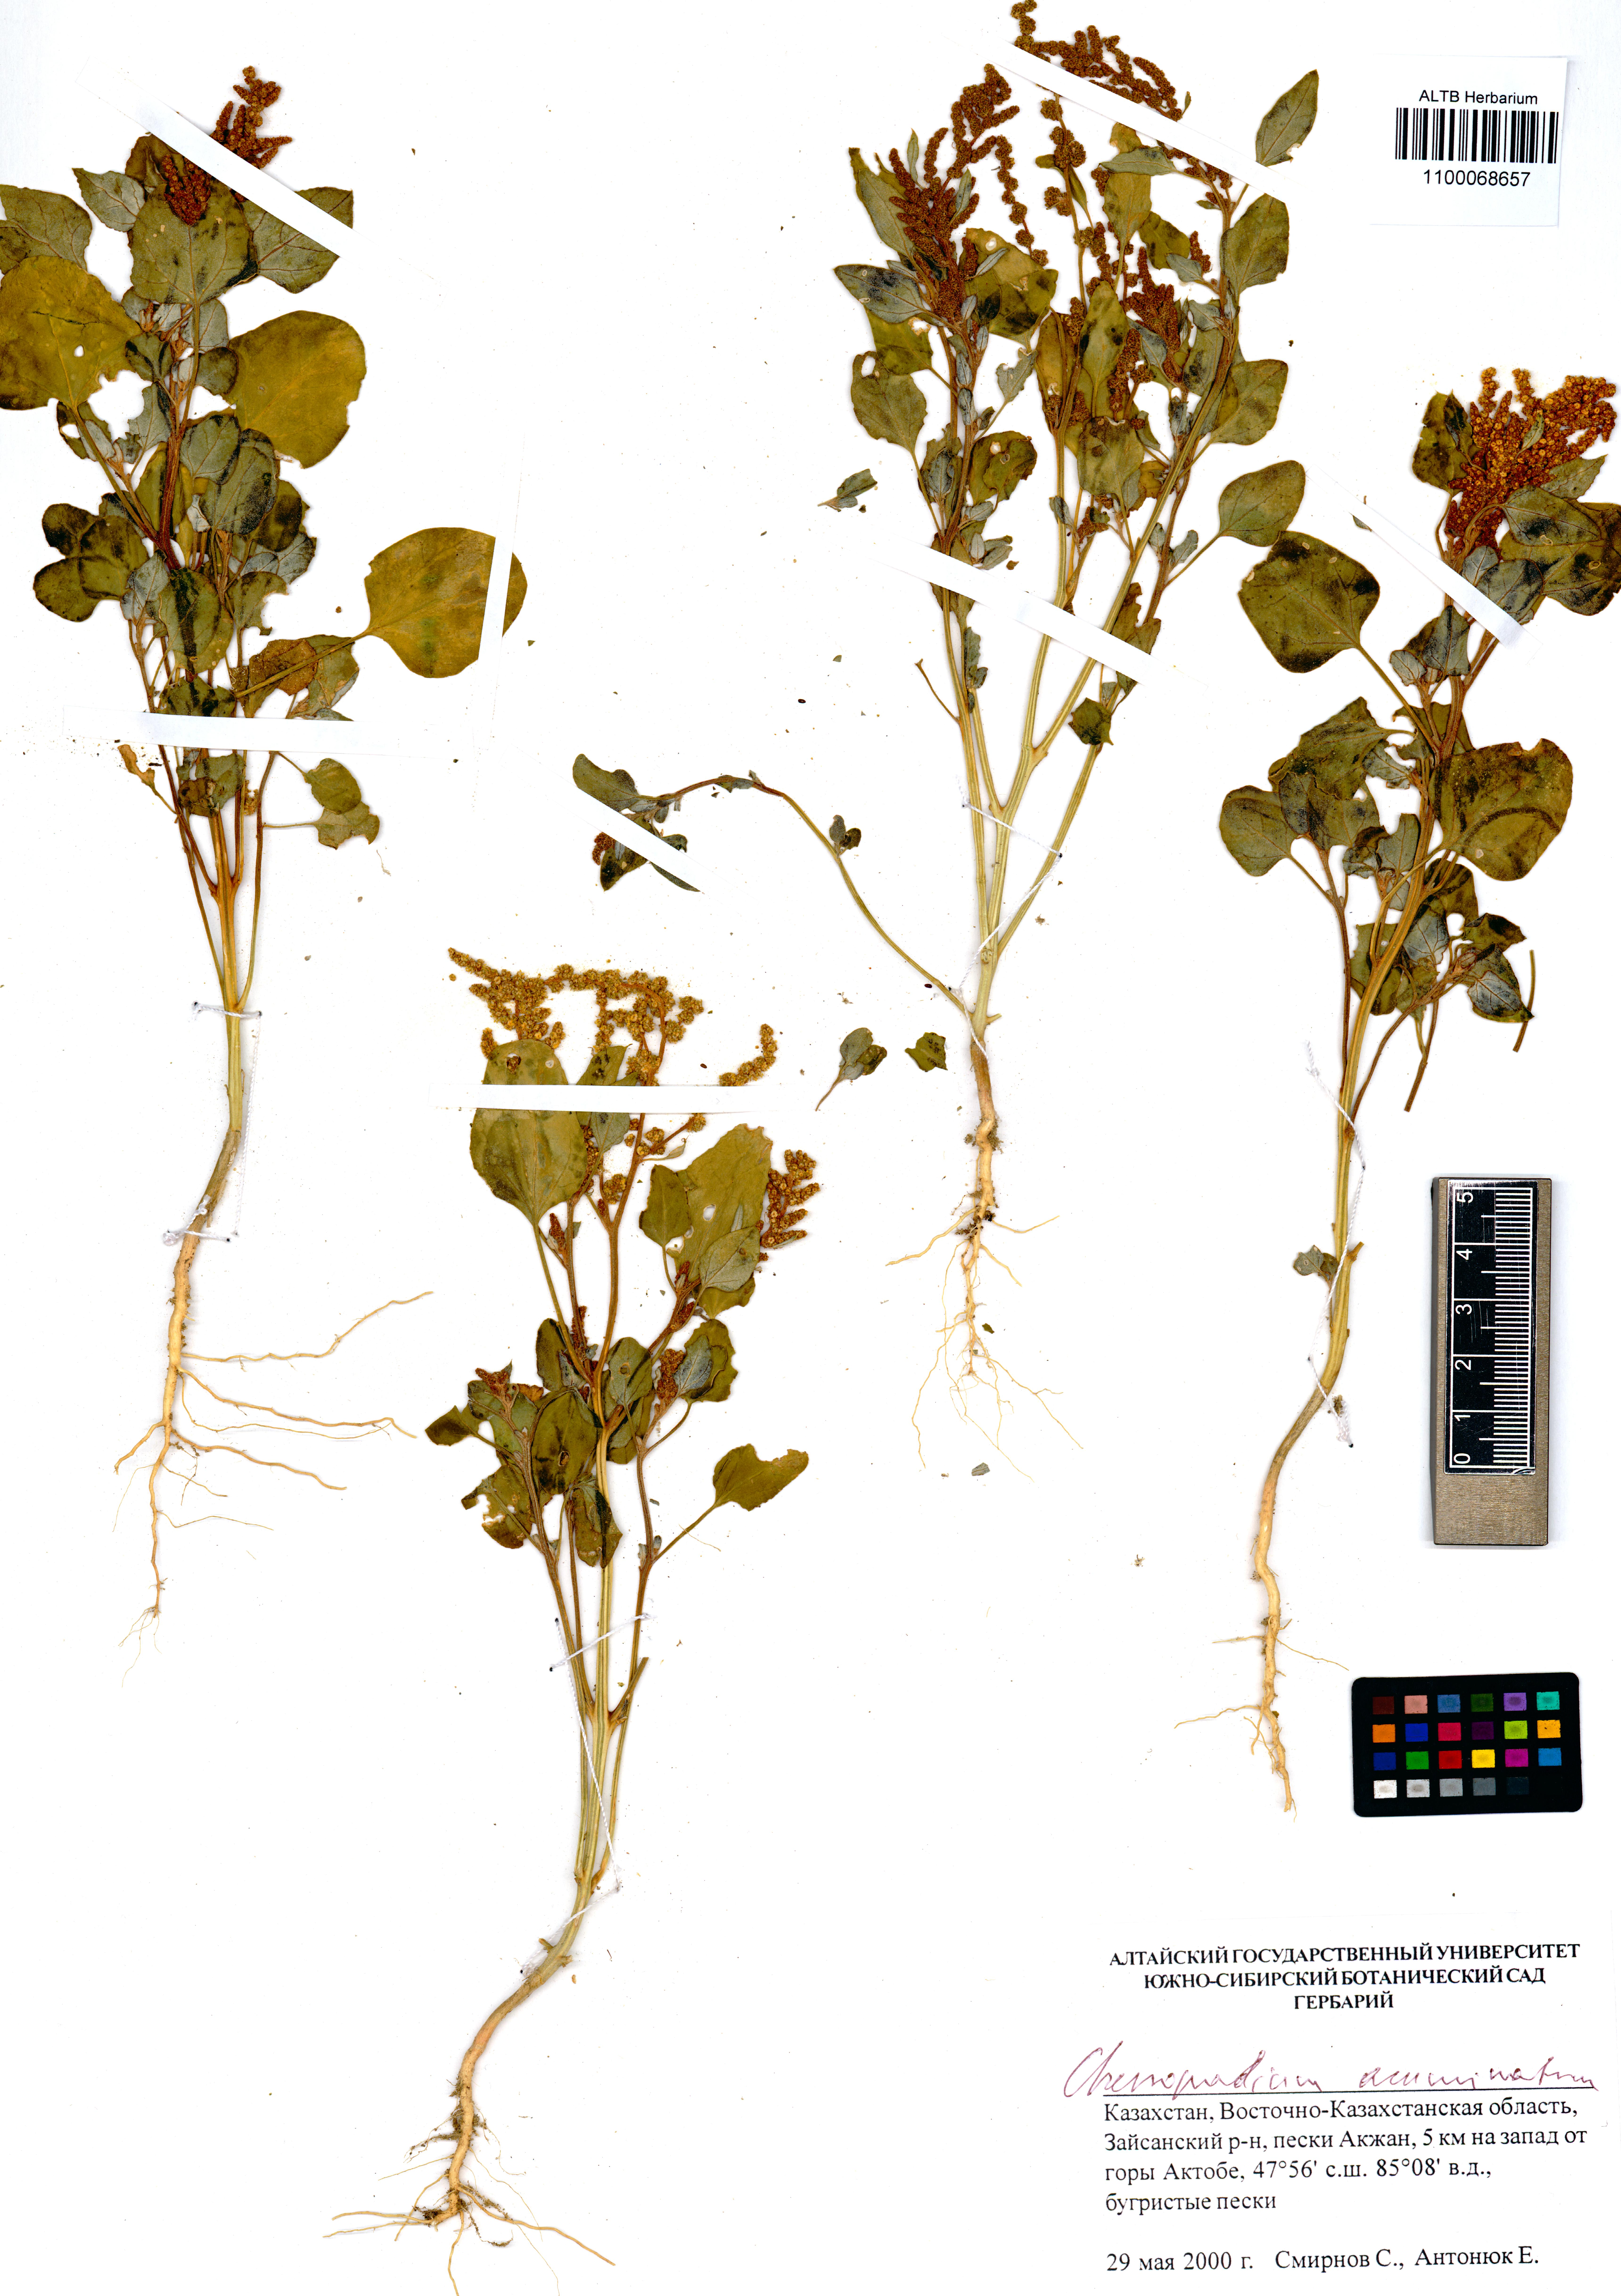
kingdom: Plantae
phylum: Tracheophyta
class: Magnoliopsida
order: Caryophyllales
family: Amaranthaceae
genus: Oxybasis
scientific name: Oxybasis rubra
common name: Red goosefoot
